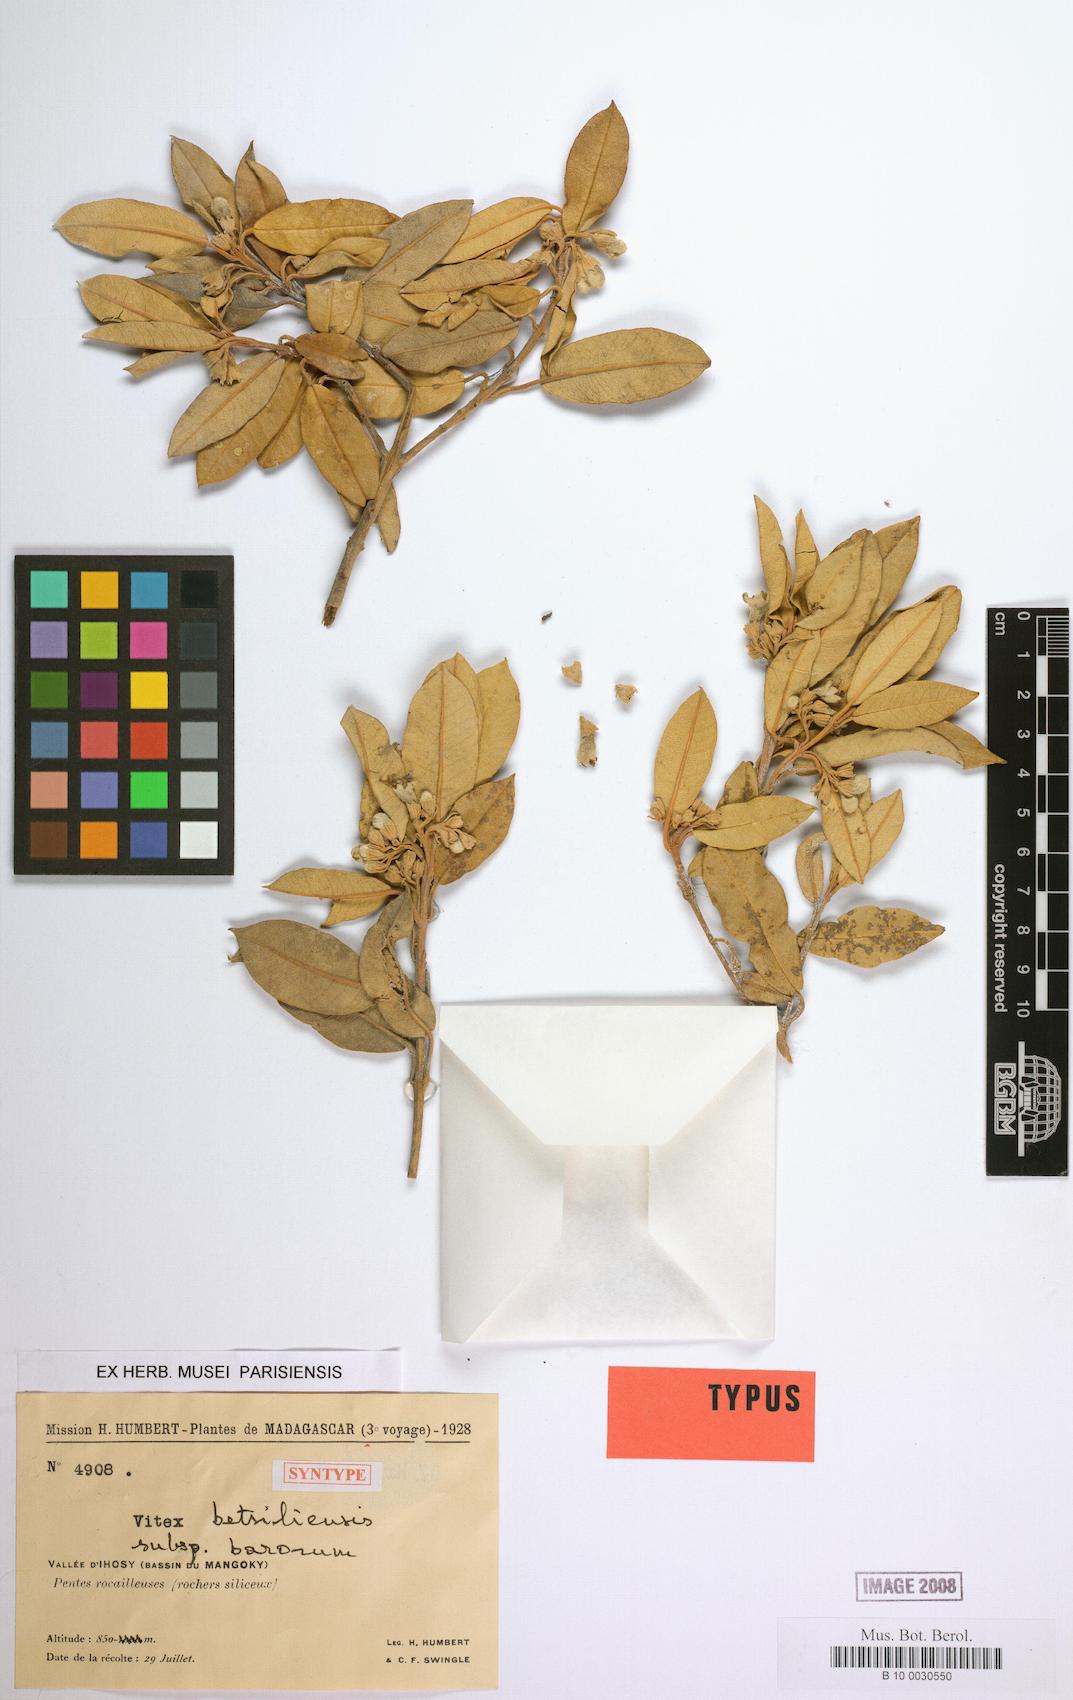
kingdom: Plantae
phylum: Tracheophyta
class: Magnoliopsida
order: Lamiales
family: Lamiaceae
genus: Vitex
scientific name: Vitex barorum
